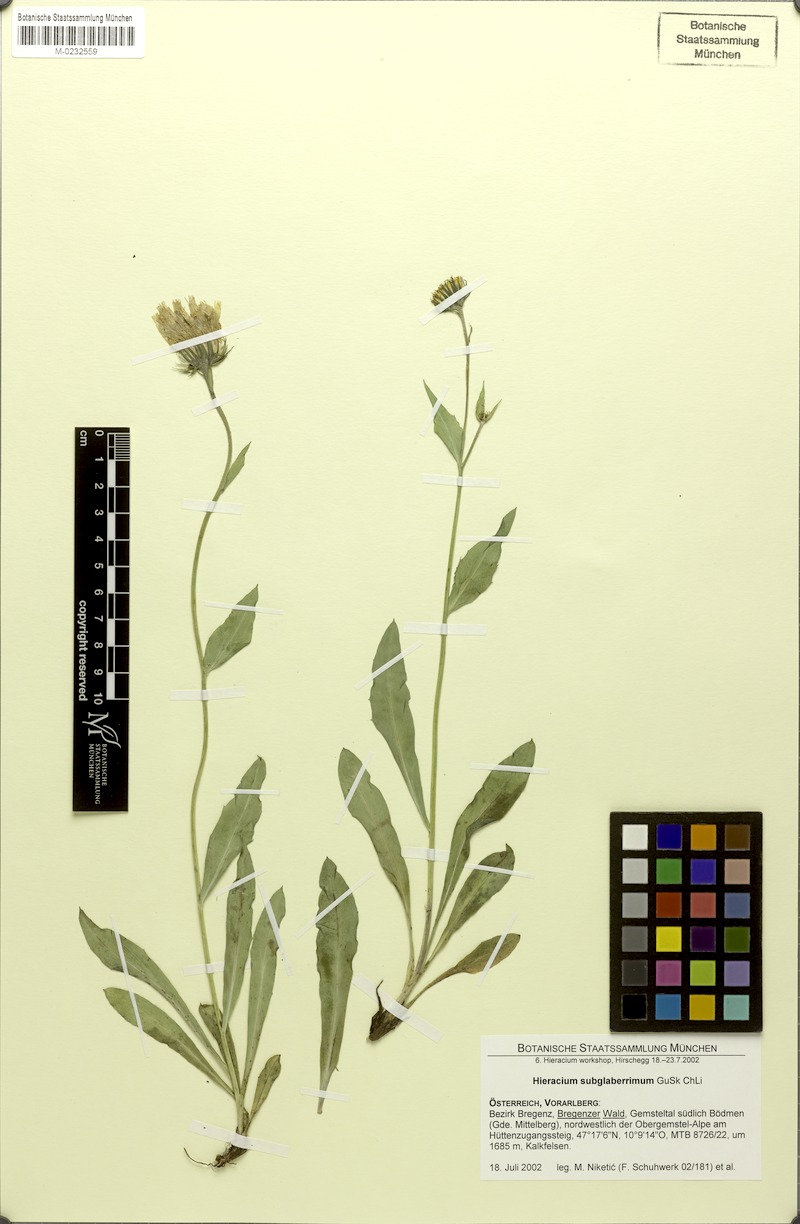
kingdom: Plantae
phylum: Tracheophyta
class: Magnoliopsida
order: Asterales
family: Asteraceae
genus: Hieracium
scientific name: Hieracium subglaberrimum
